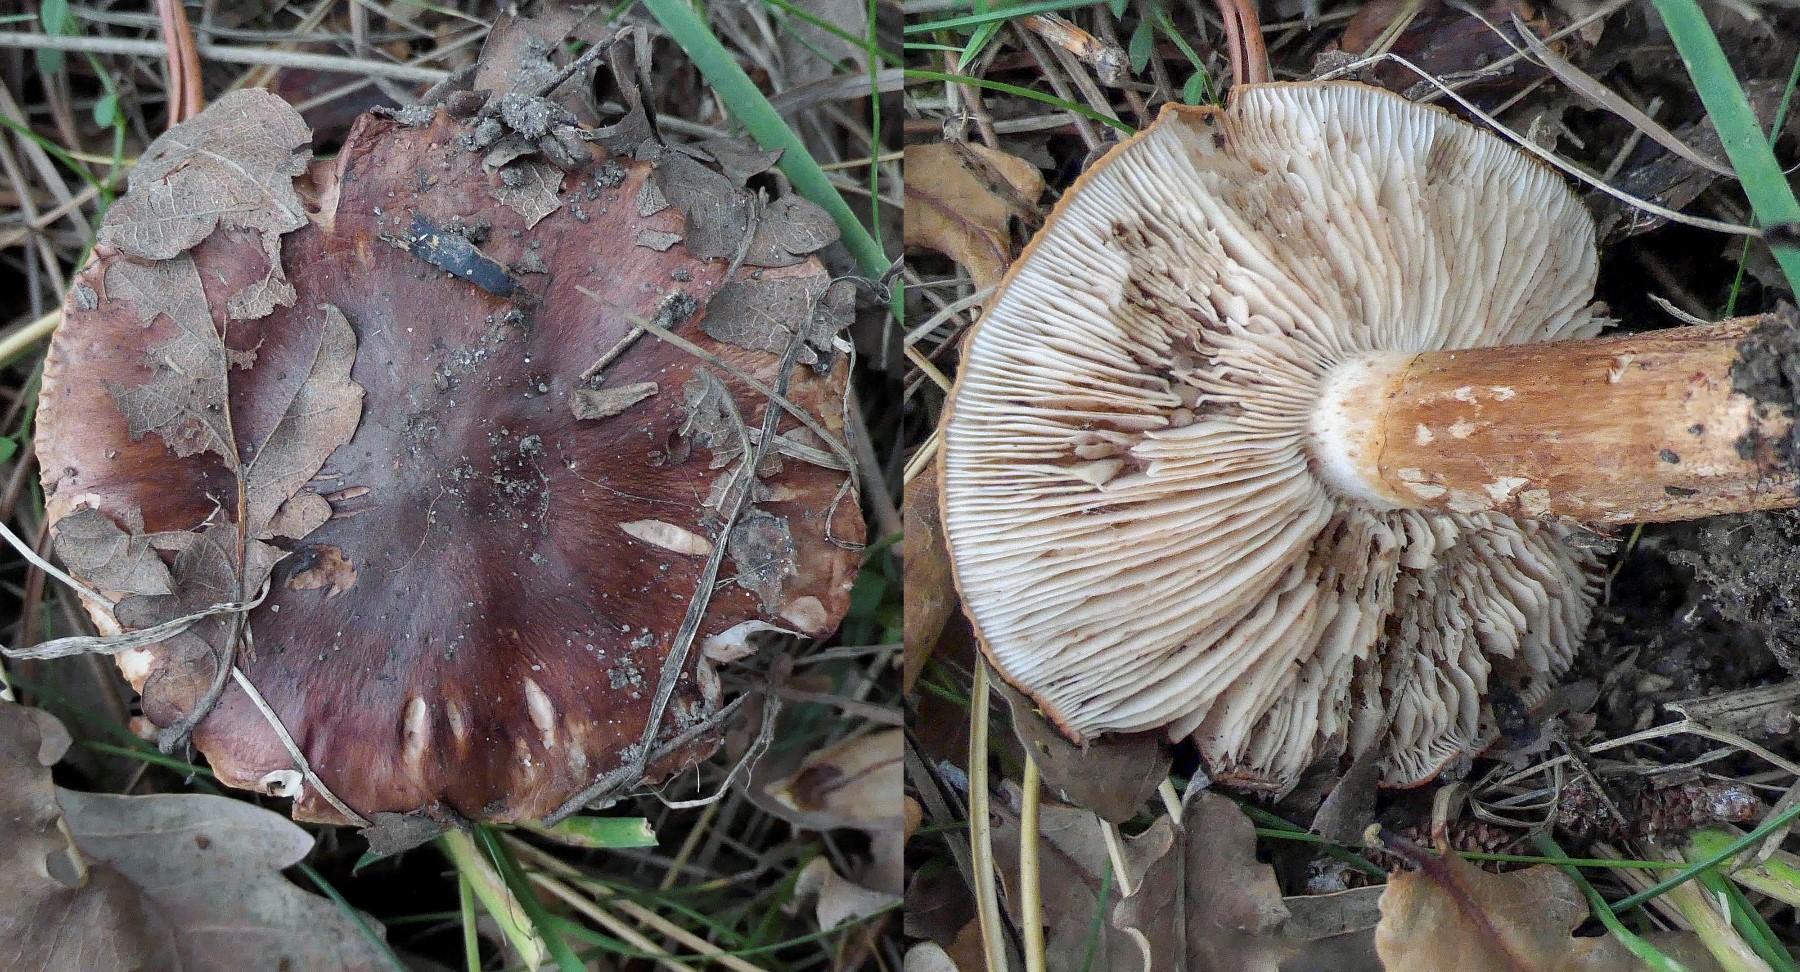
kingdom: Fungi
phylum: Basidiomycota
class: Agaricomycetes
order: Agaricales
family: Tricholomataceae
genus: Tricholoma
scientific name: Tricholoma fracticum
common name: hvidhalset ridderhat
